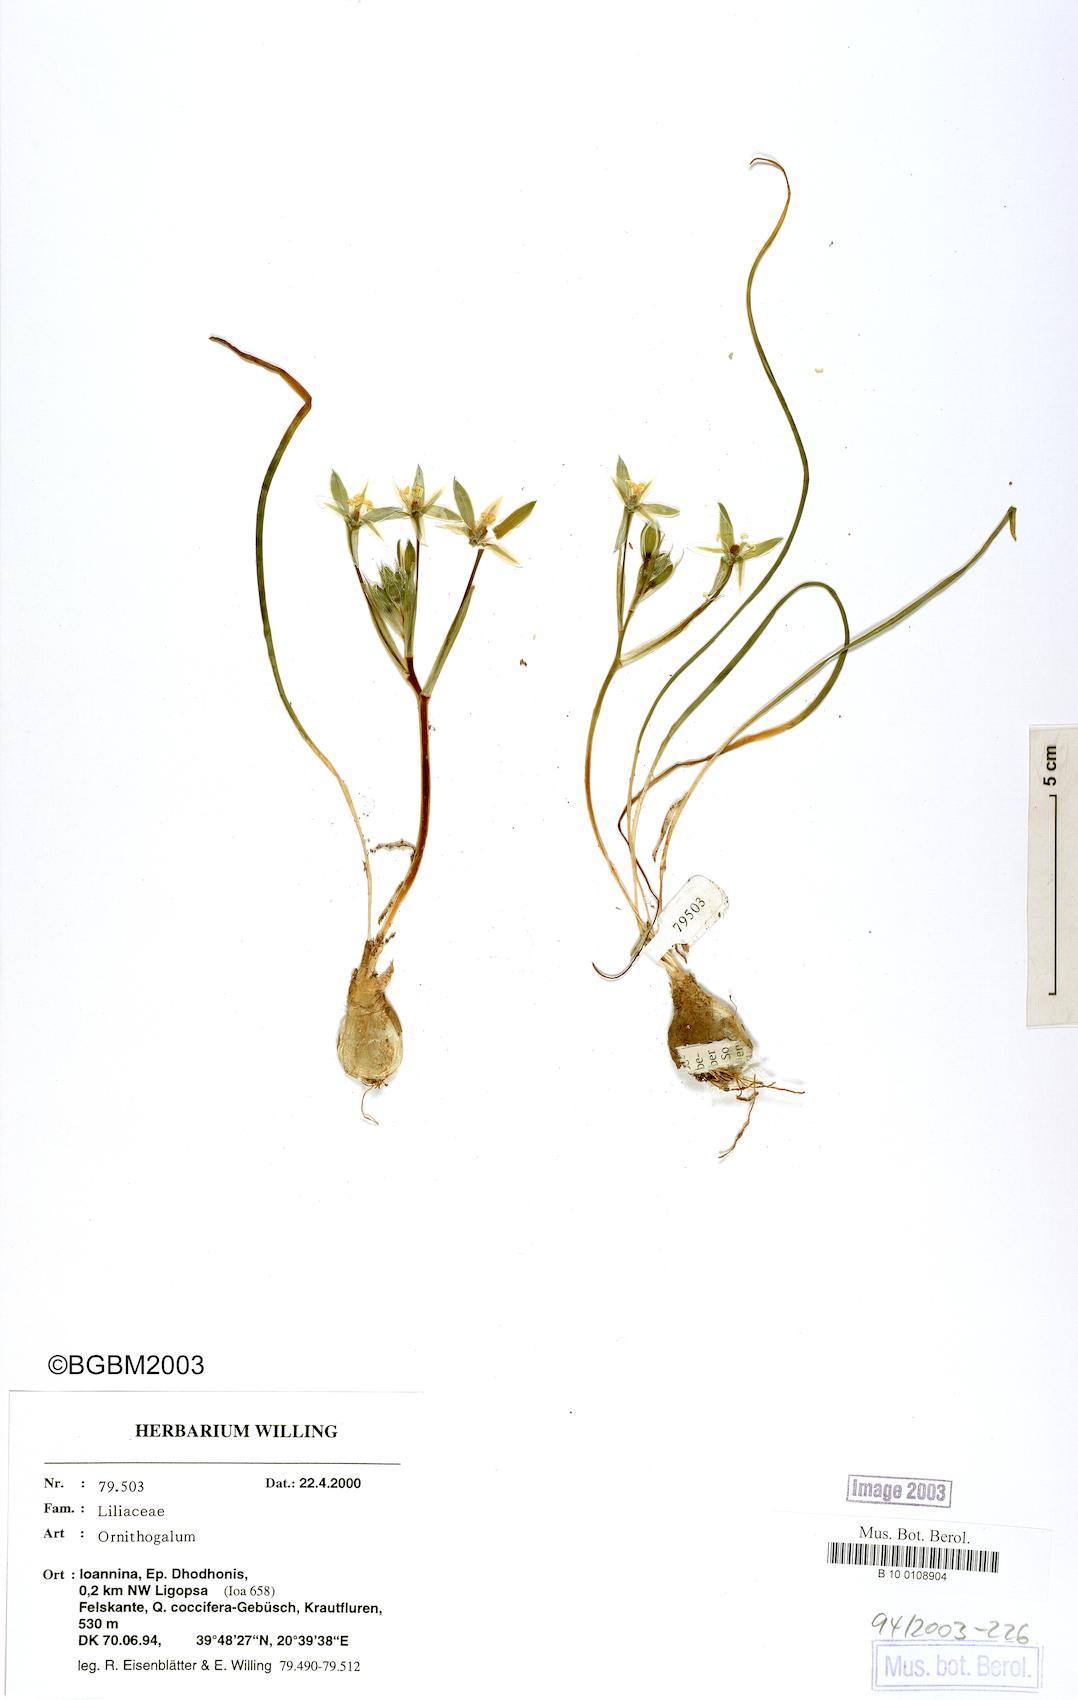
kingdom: Plantae
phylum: Tracheophyta
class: Liliopsida
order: Asparagales
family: Asparagaceae
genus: Ornithogalum
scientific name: Ornithogalum
